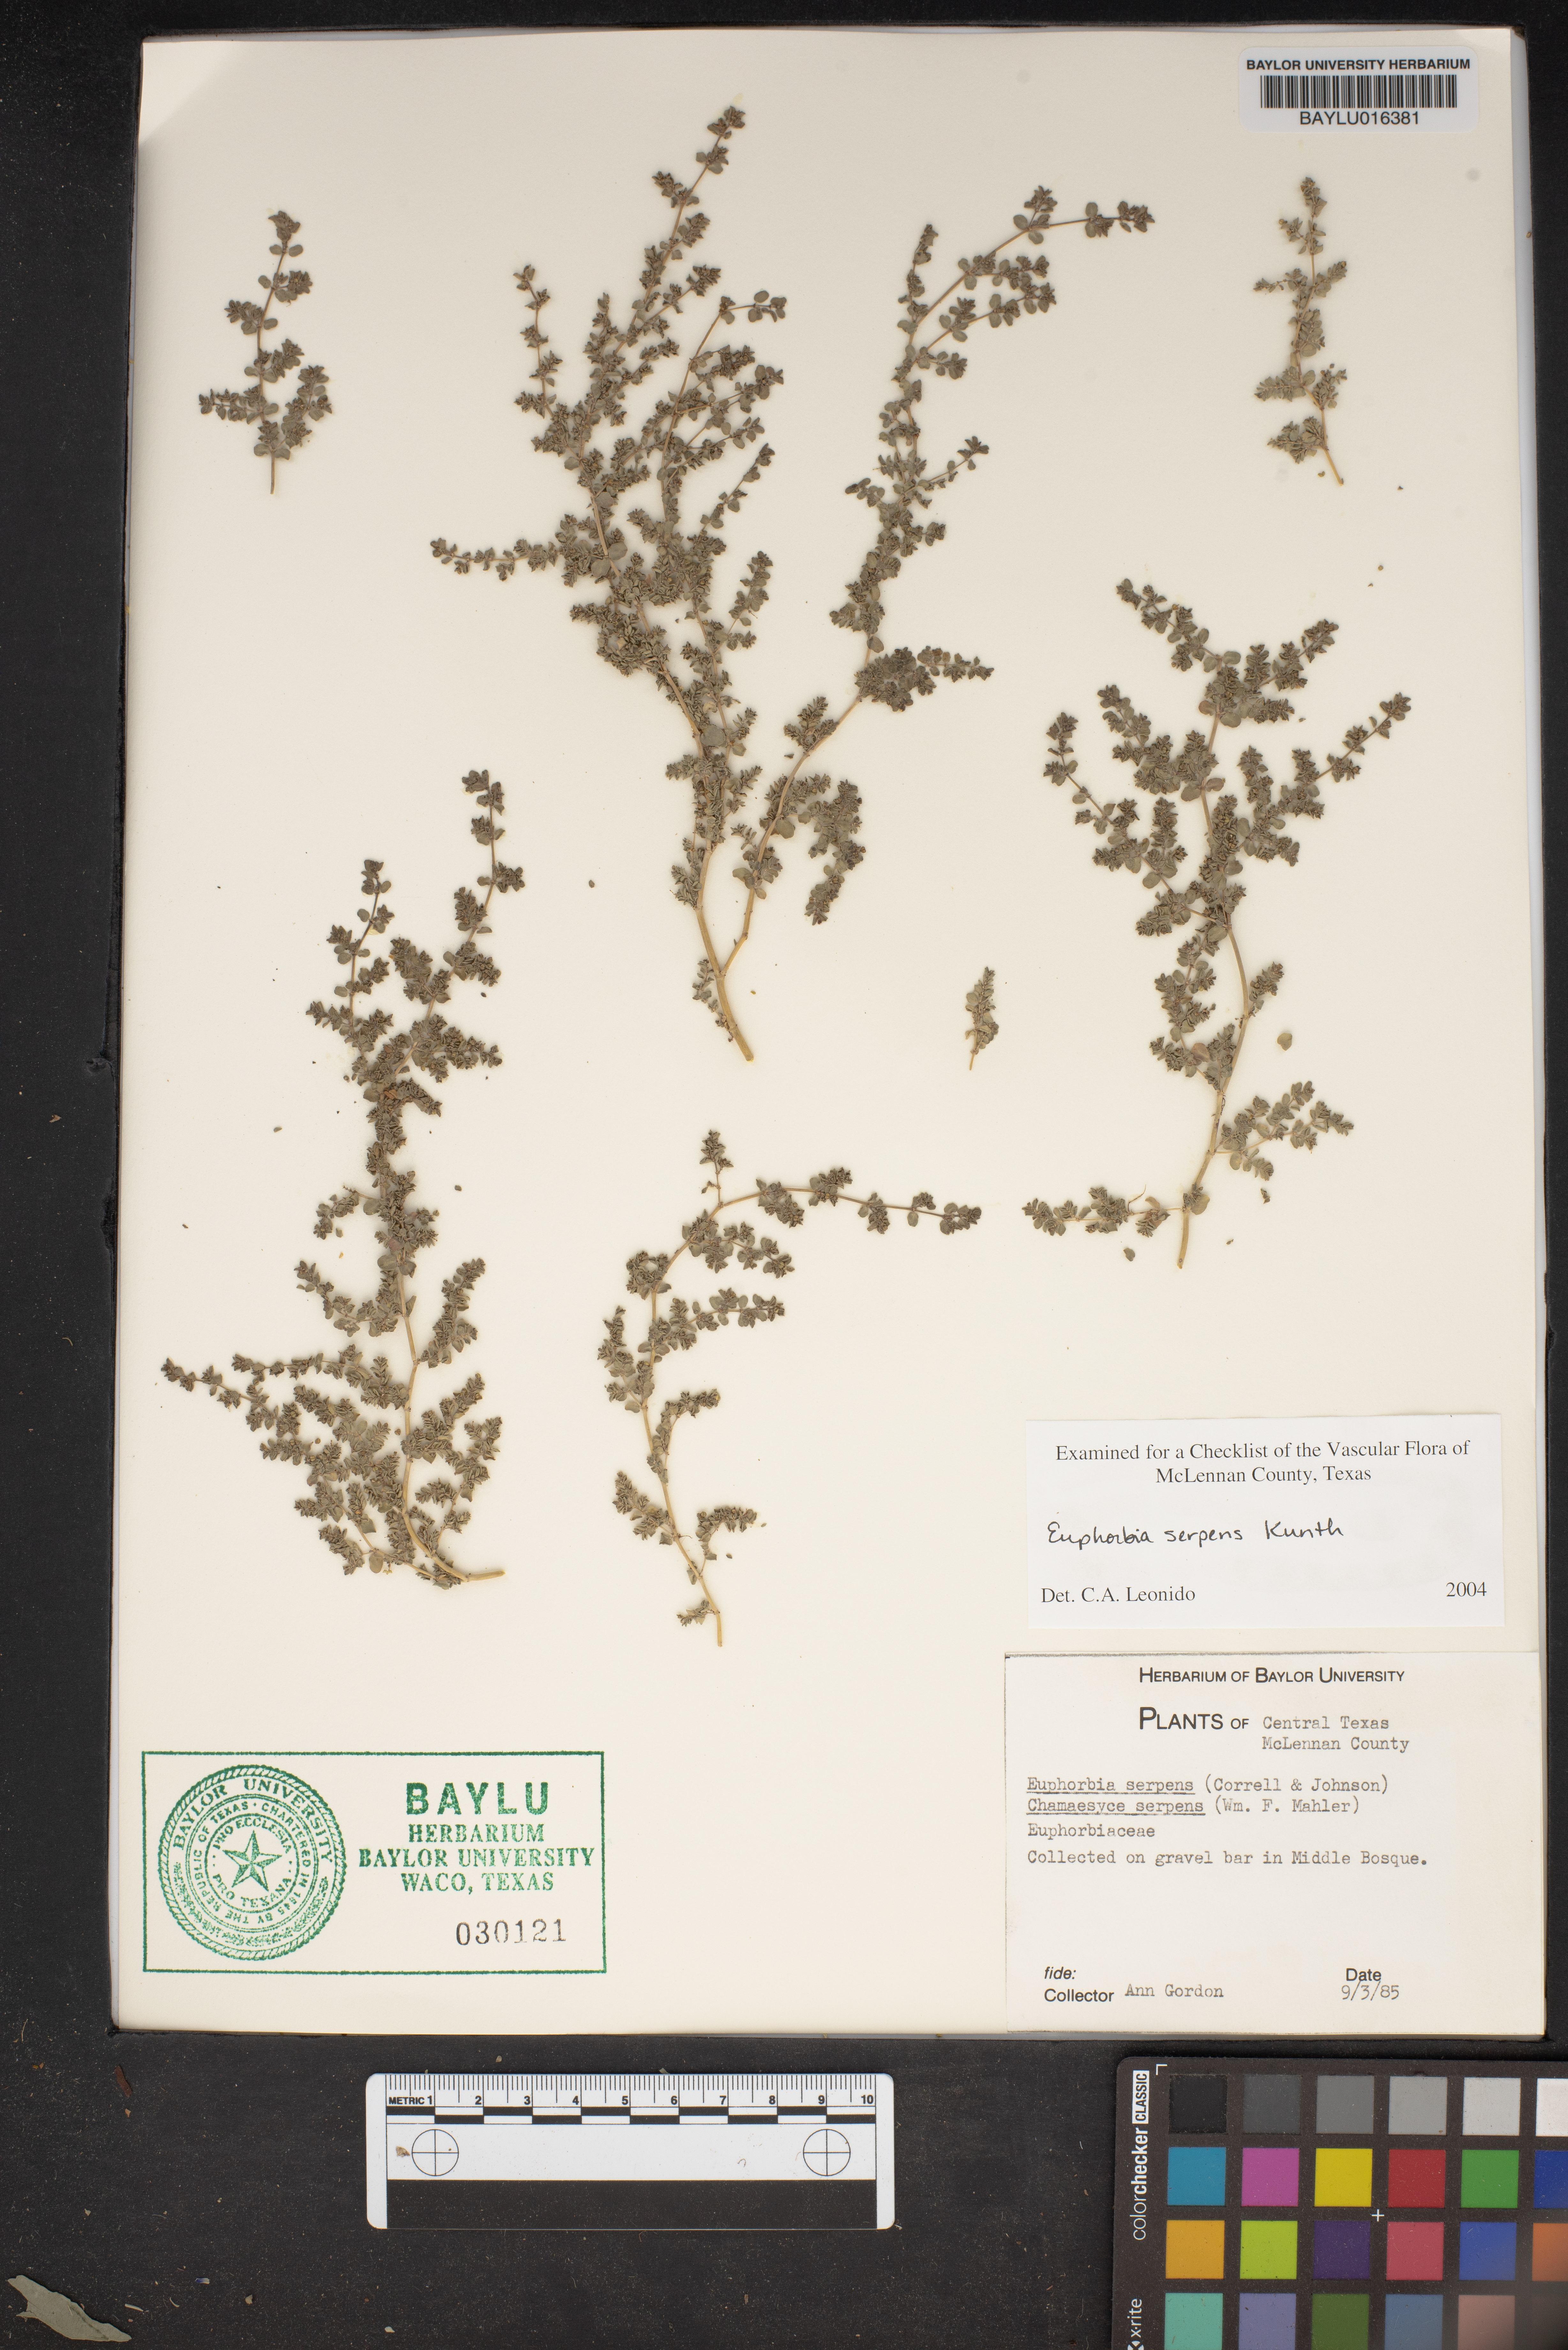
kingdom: Plantae
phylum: Tracheophyta
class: Magnoliopsida
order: Malpighiales
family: Euphorbiaceae
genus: Euphorbia
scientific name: Euphorbia serpens
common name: Matted sandmat
